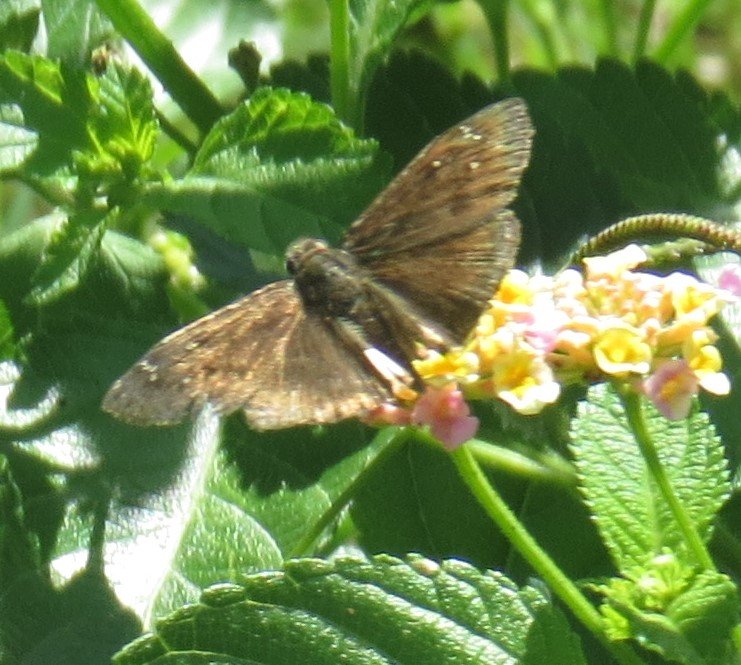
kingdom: Animalia
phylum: Arthropoda
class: Insecta
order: Lepidoptera
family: Hesperiidae
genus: Gesta
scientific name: Gesta
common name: Horace's Duskywing
